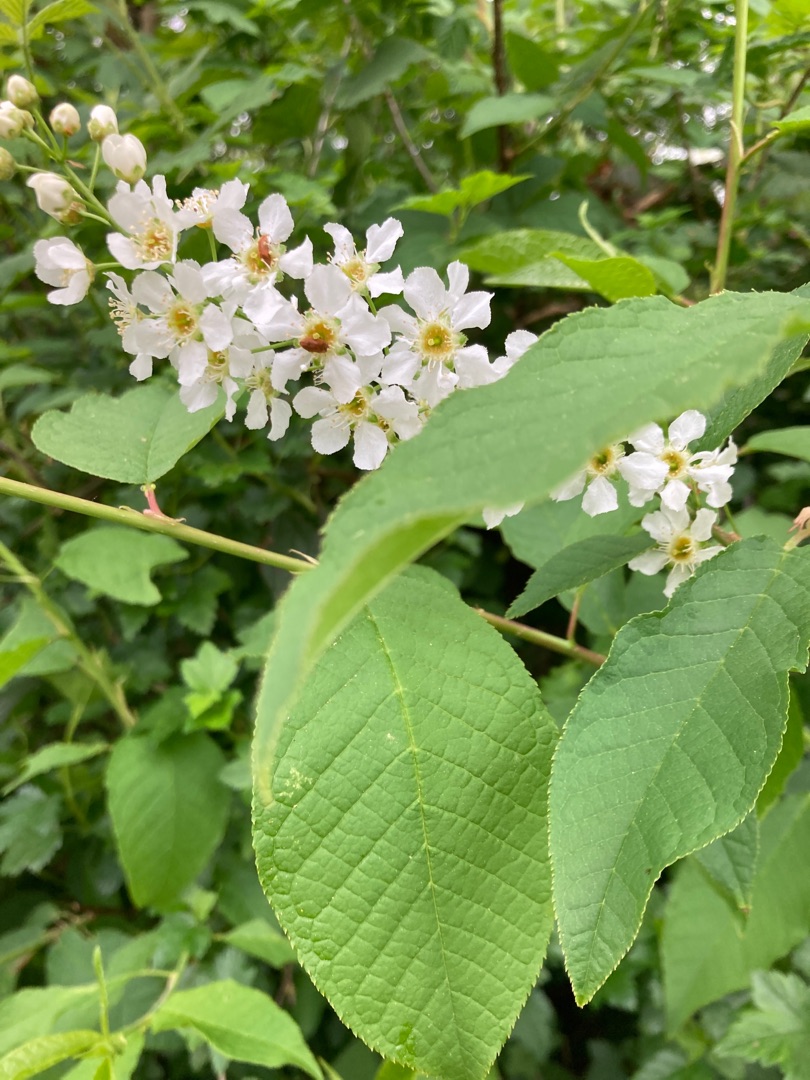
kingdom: Plantae
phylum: Tracheophyta
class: Magnoliopsida
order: Rosales
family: Rosaceae
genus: Prunus
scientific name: Prunus padus
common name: Almindelig hæg
